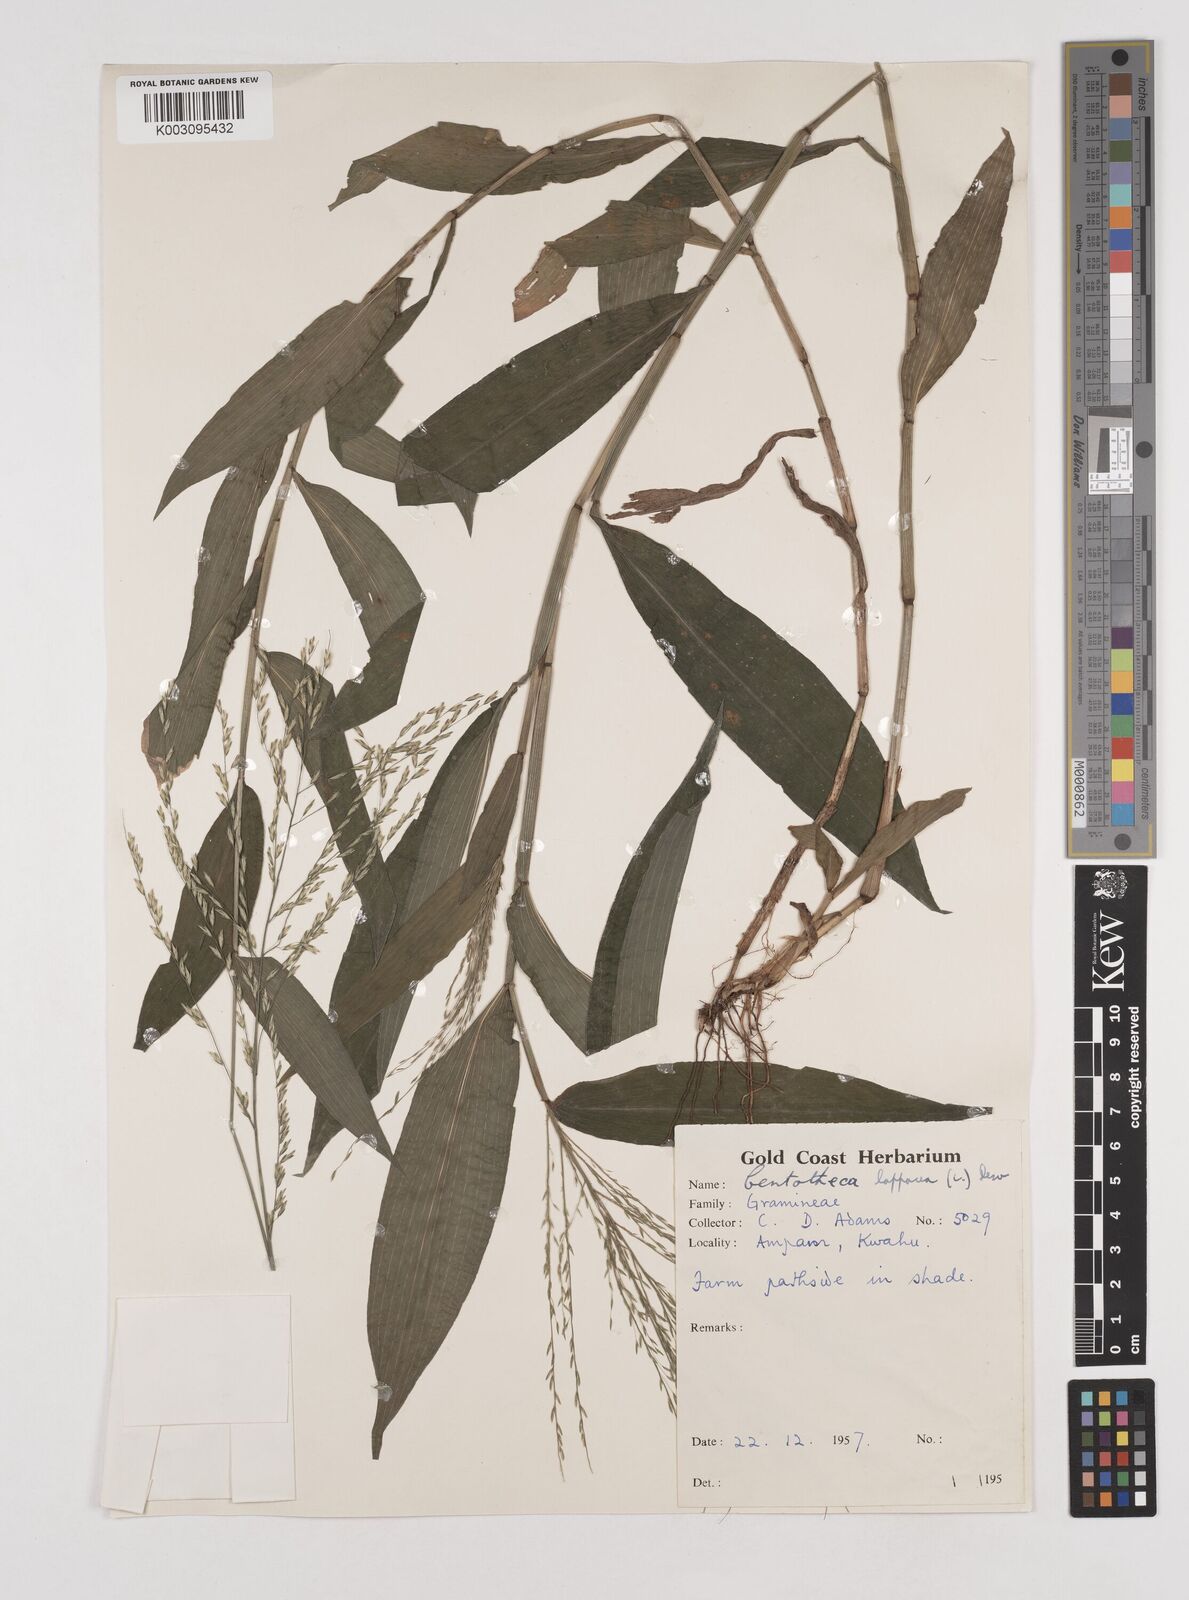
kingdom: Plantae
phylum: Tracheophyta
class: Liliopsida
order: Poales
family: Poaceae
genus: Centotheca
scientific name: Centotheca lappacea
